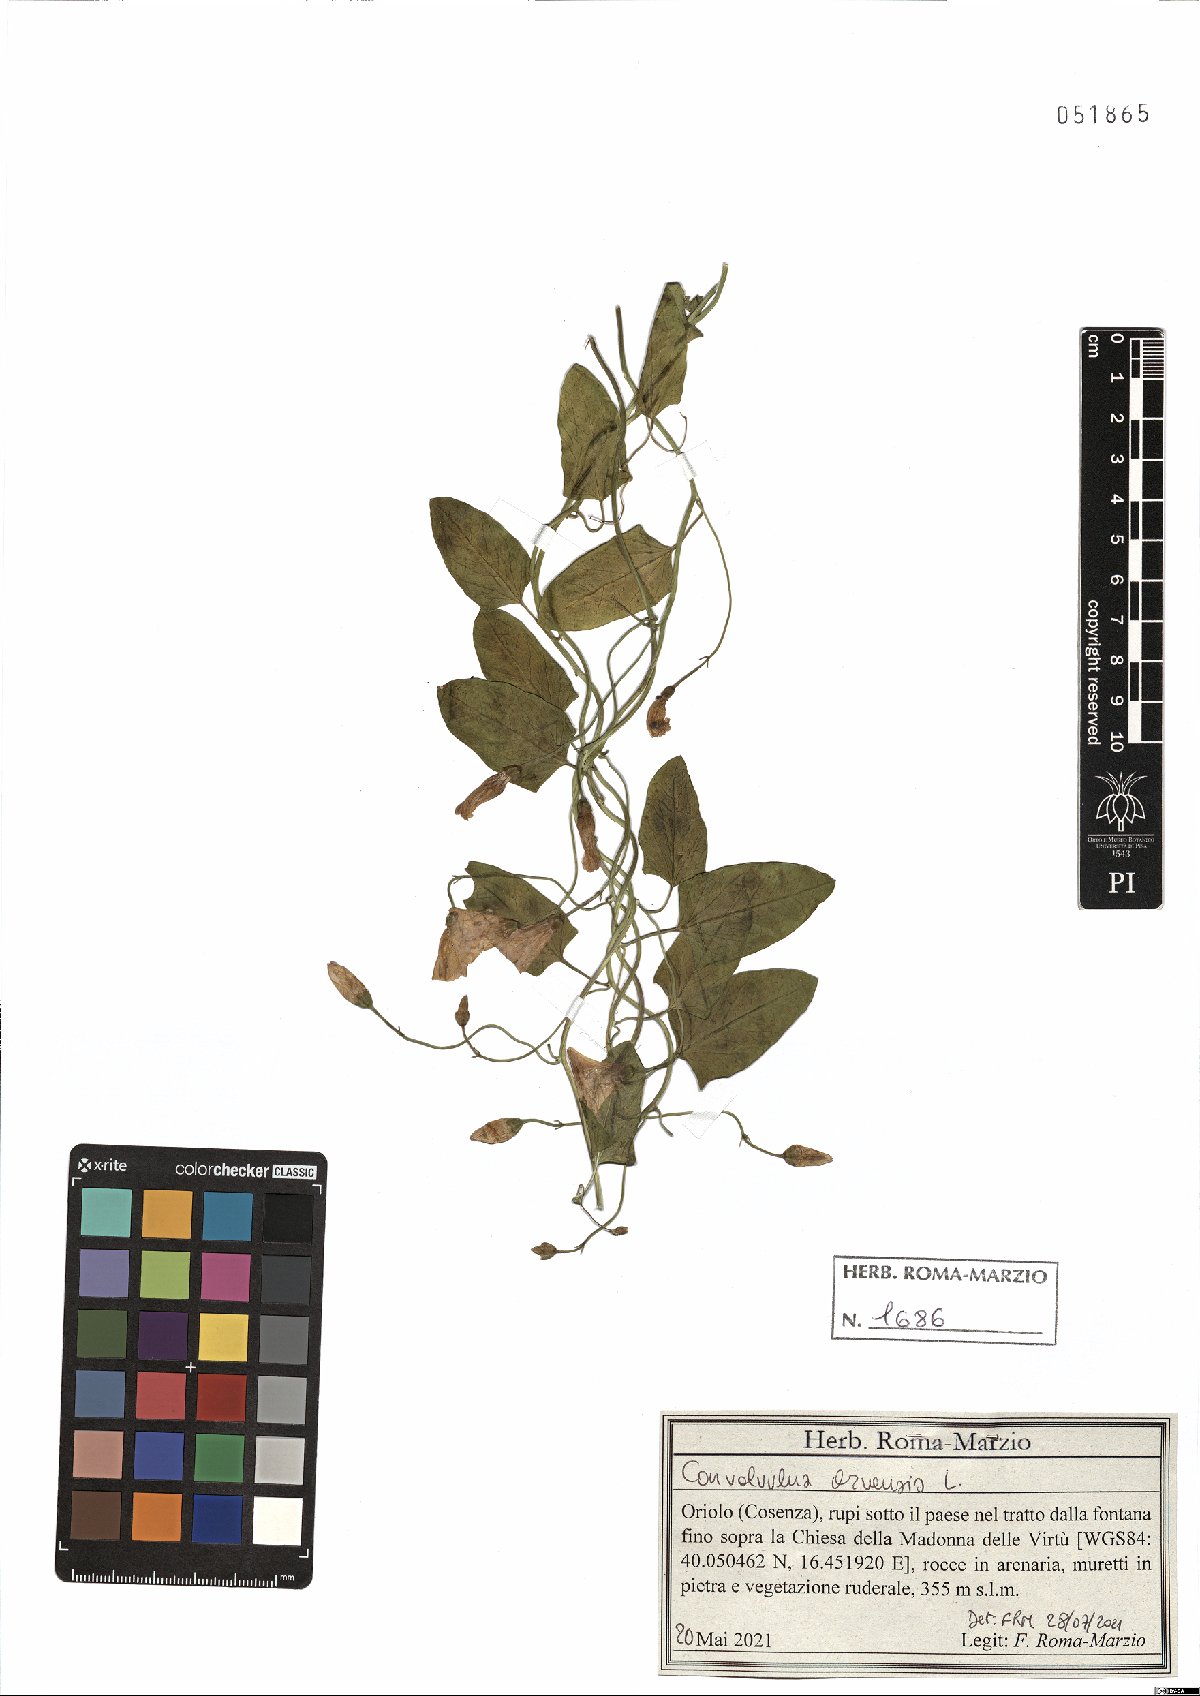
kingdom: Plantae
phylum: Tracheophyta
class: Magnoliopsida
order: Solanales
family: Convolvulaceae
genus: Convolvulus
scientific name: Convolvulus arvensis
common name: Field bindweed
